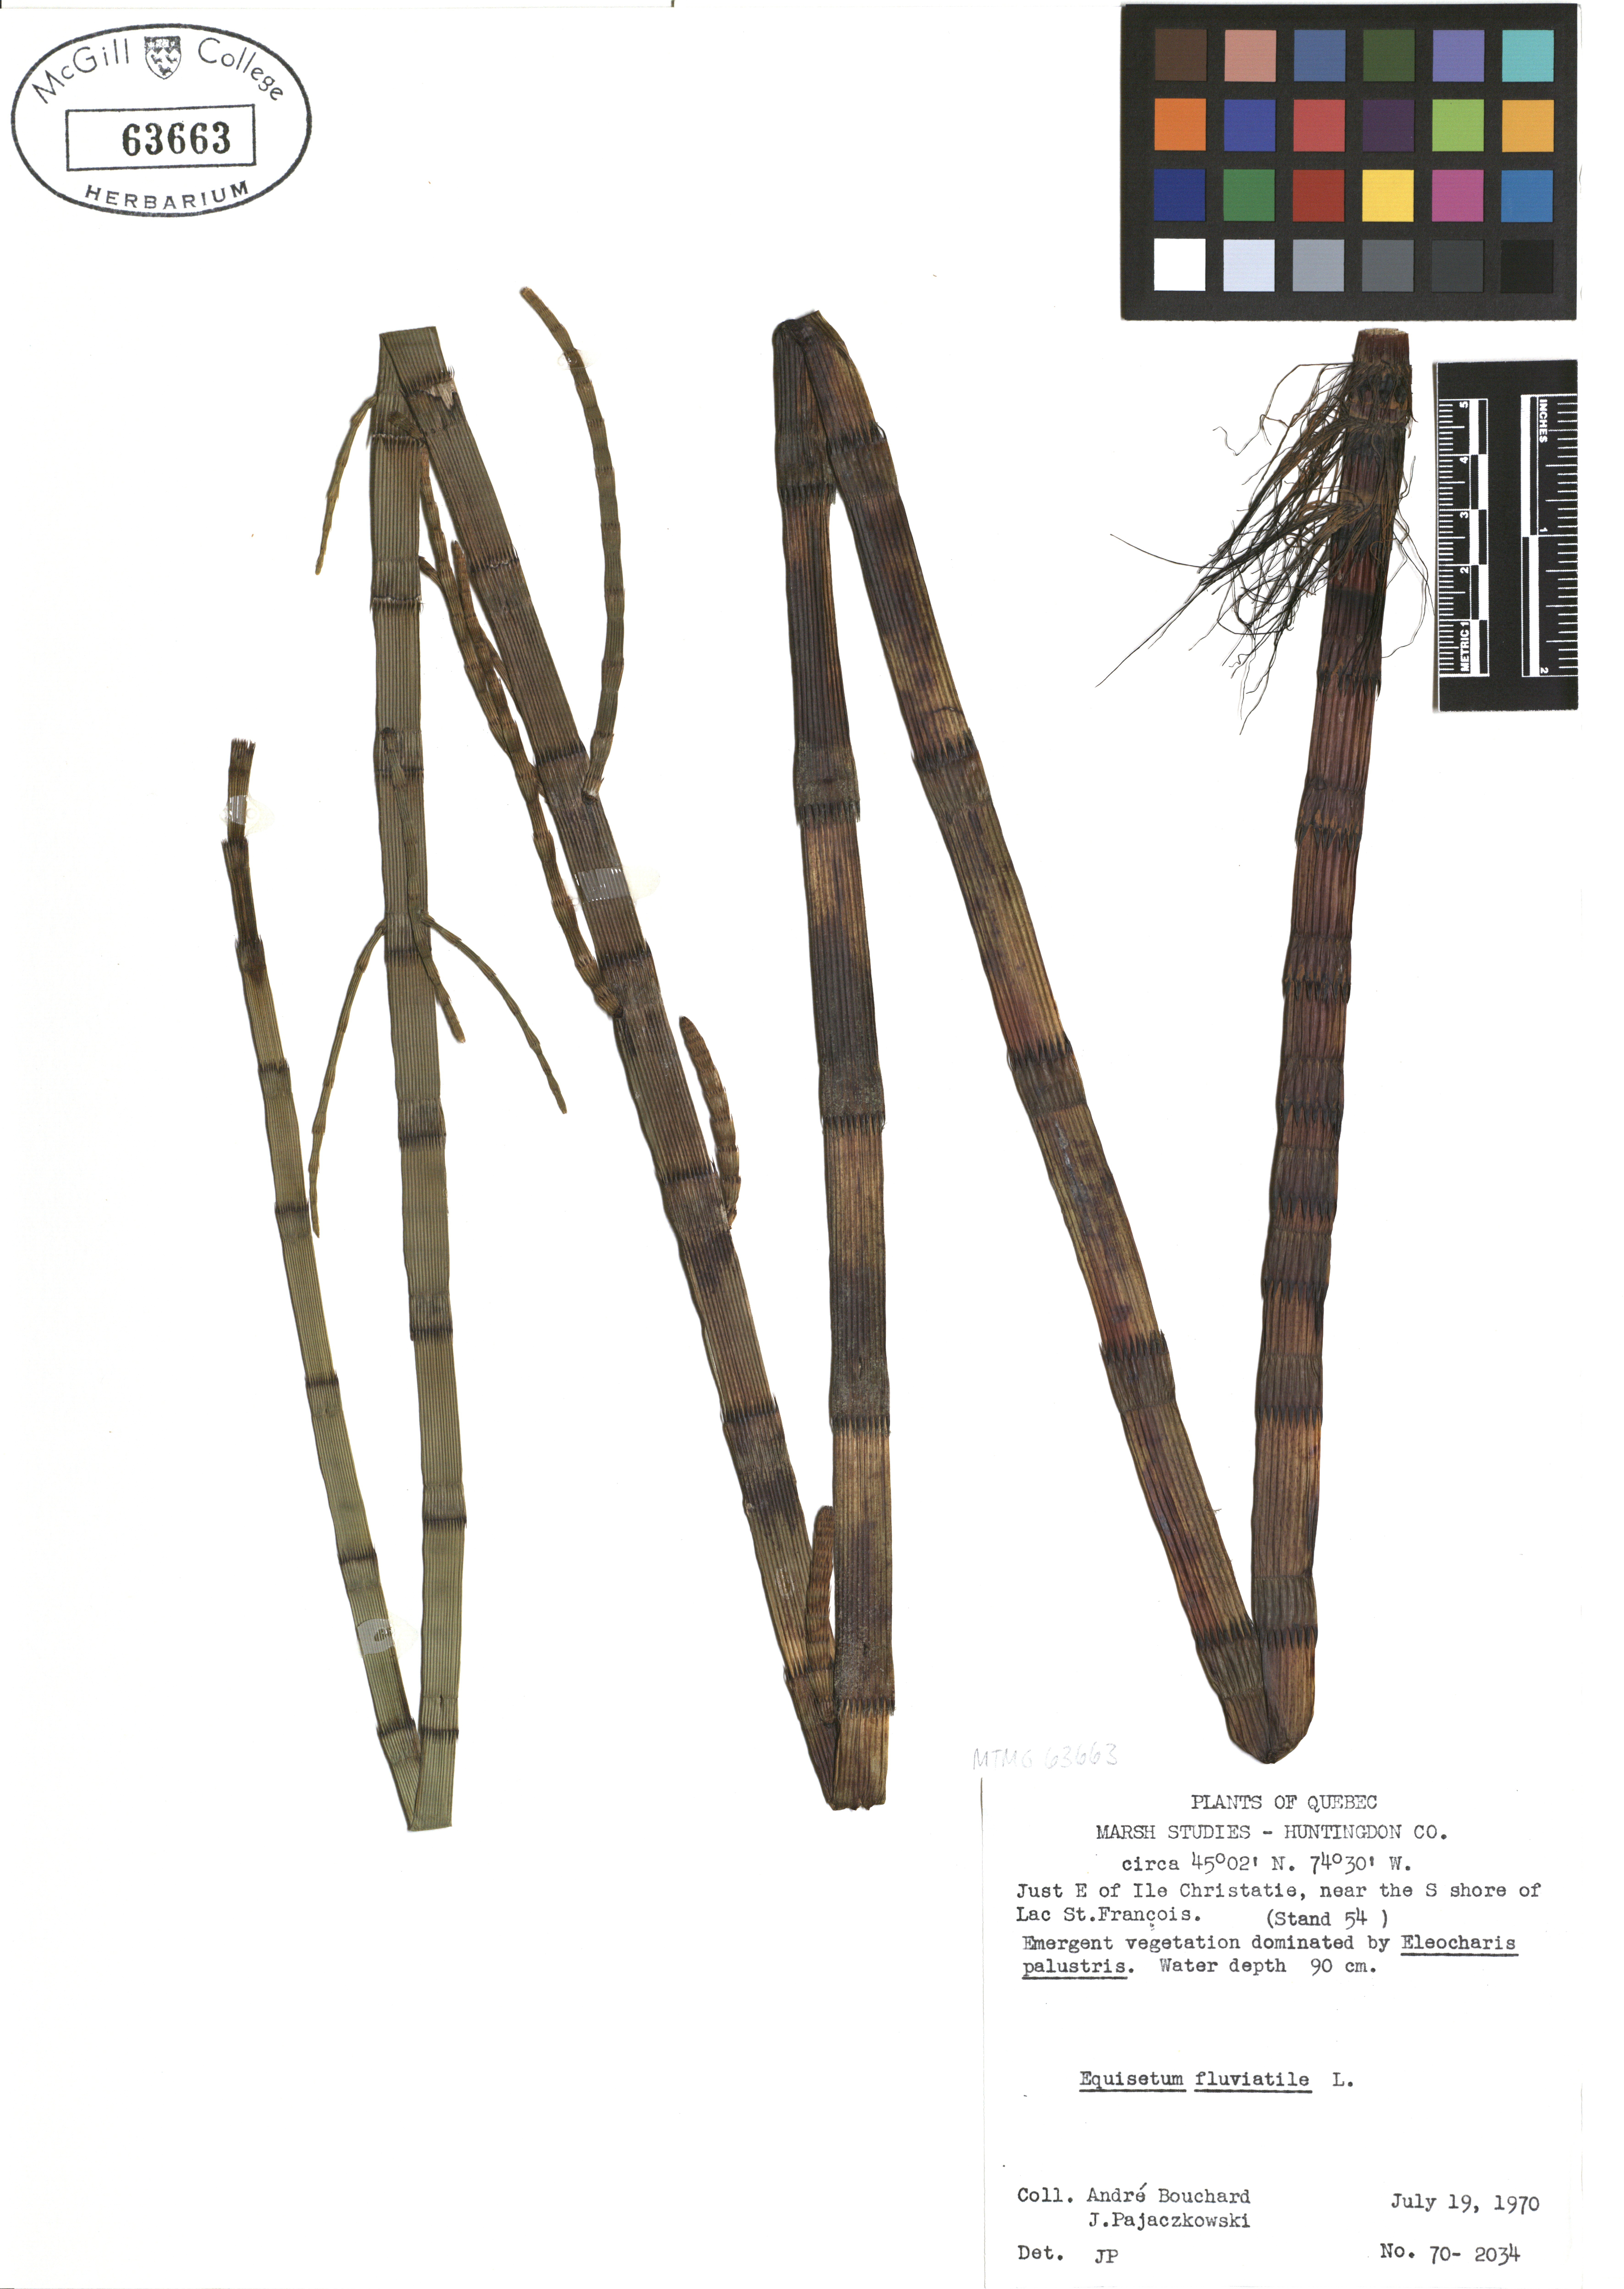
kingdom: Plantae
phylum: Tracheophyta
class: Polypodiopsida
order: Equisetales
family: Equisetaceae
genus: Equisetum
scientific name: Equisetum fluviatile
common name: Water horsetail
